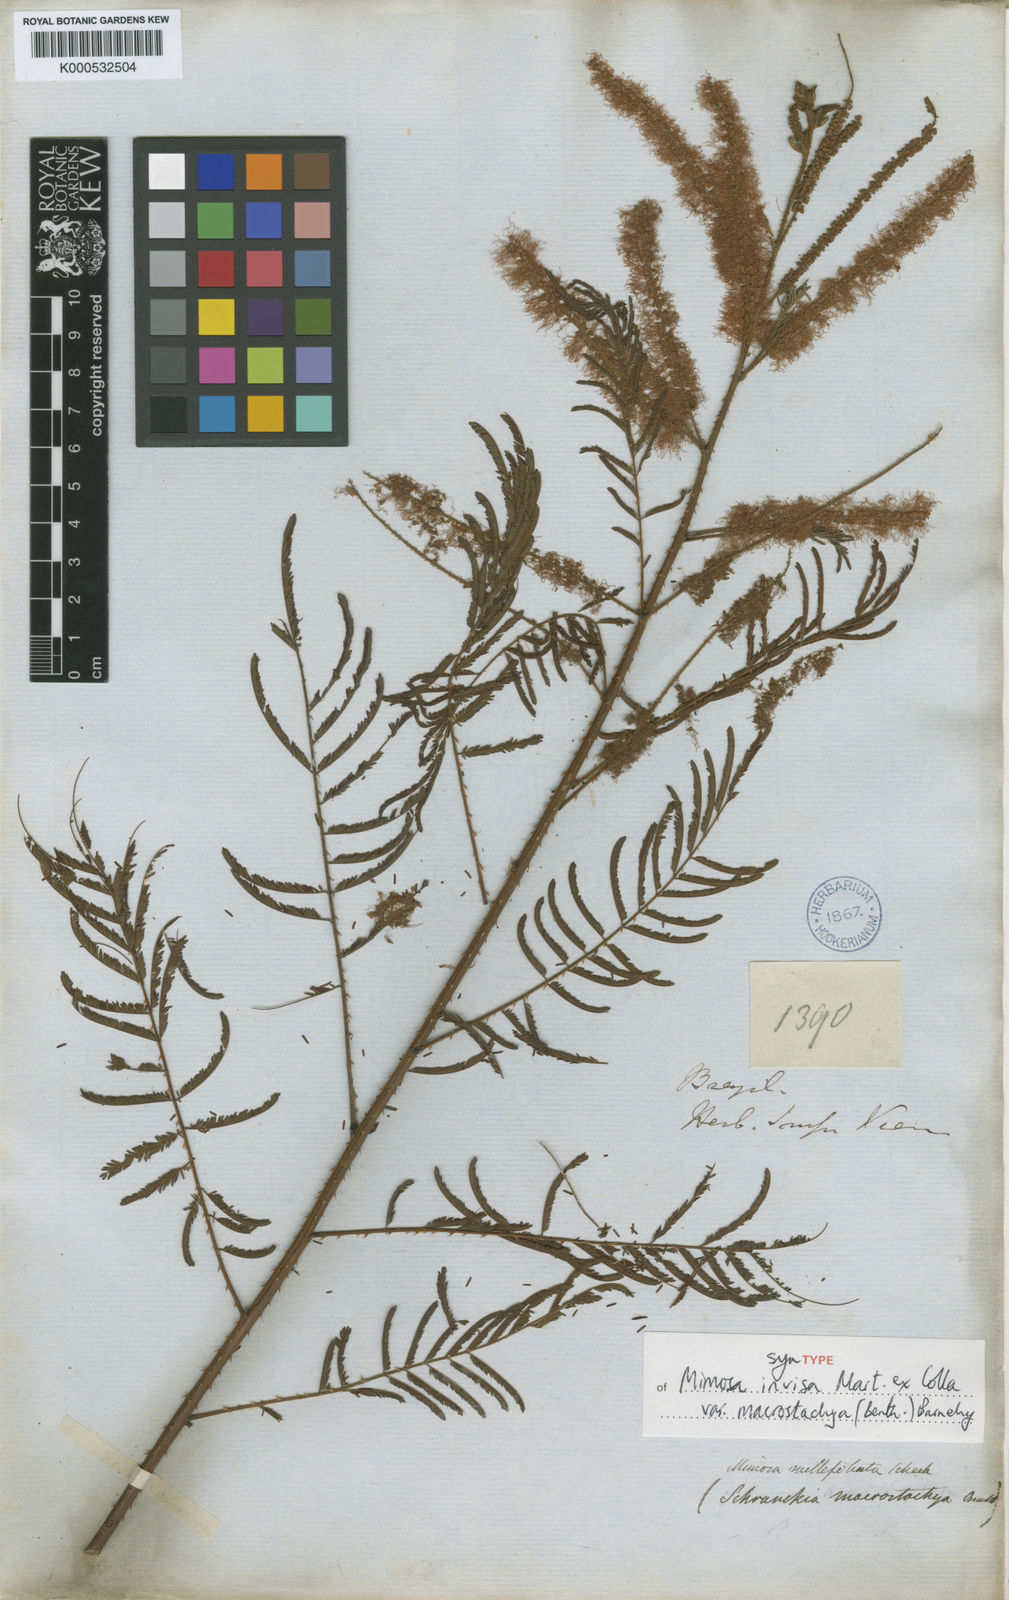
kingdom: Plantae
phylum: Tracheophyta
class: Magnoliopsida
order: Fabales
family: Fabaceae
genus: Mimosa
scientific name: Mimosa invisa
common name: Creeping sensitive-plant
